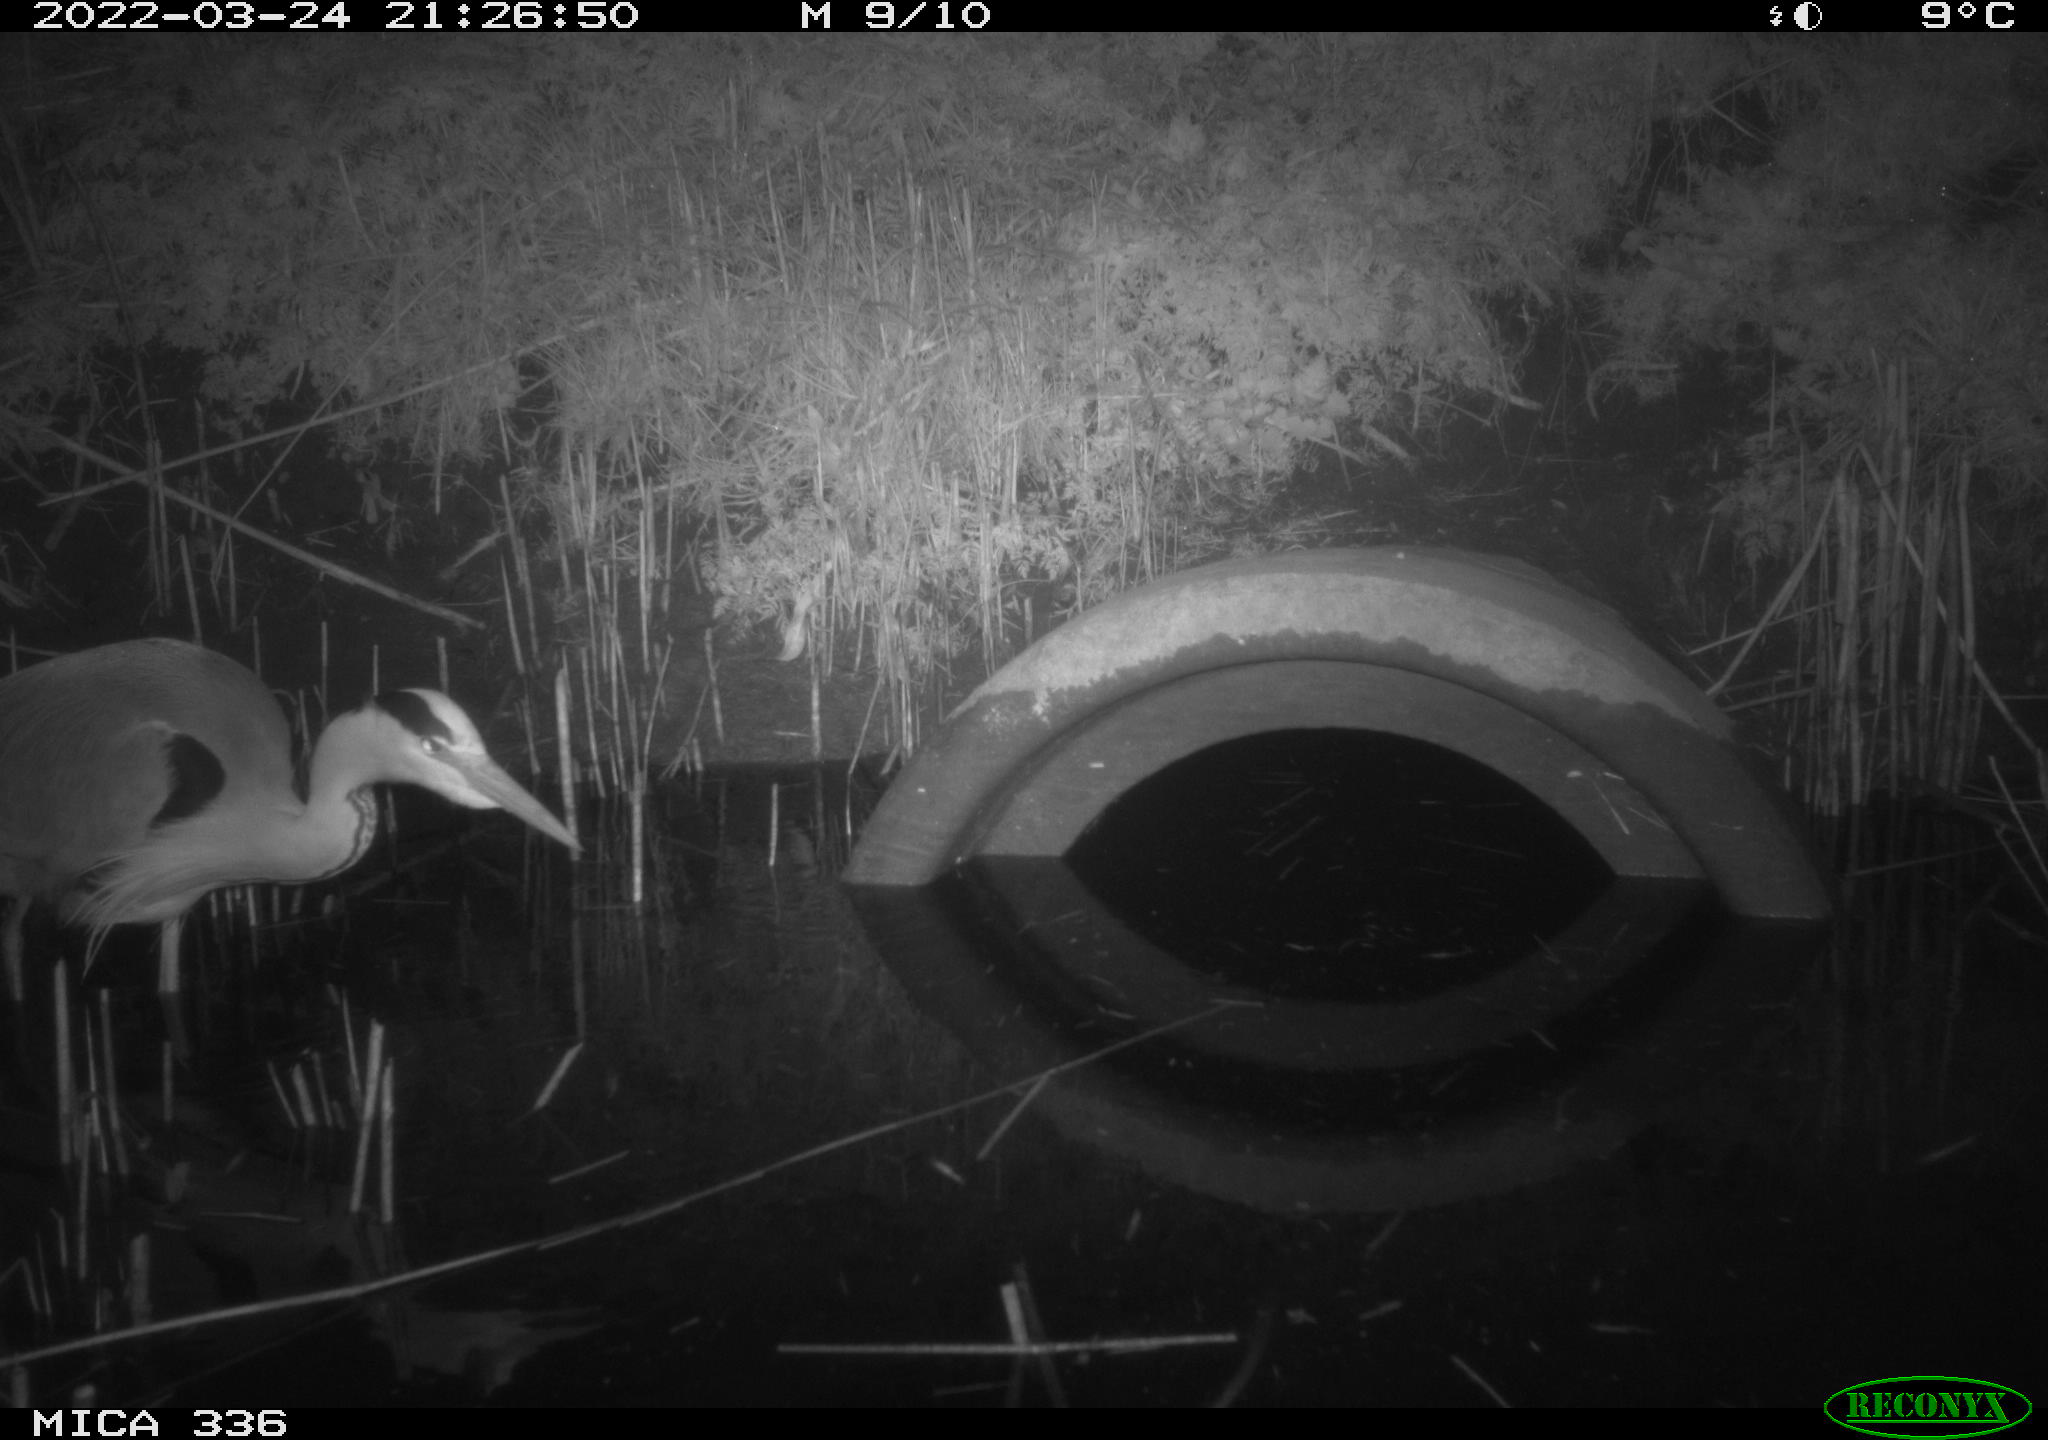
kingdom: Animalia
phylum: Chordata
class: Aves
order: Pelecaniformes
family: Ardeidae
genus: Ardea
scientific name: Ardea cinerea
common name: Grey heron
